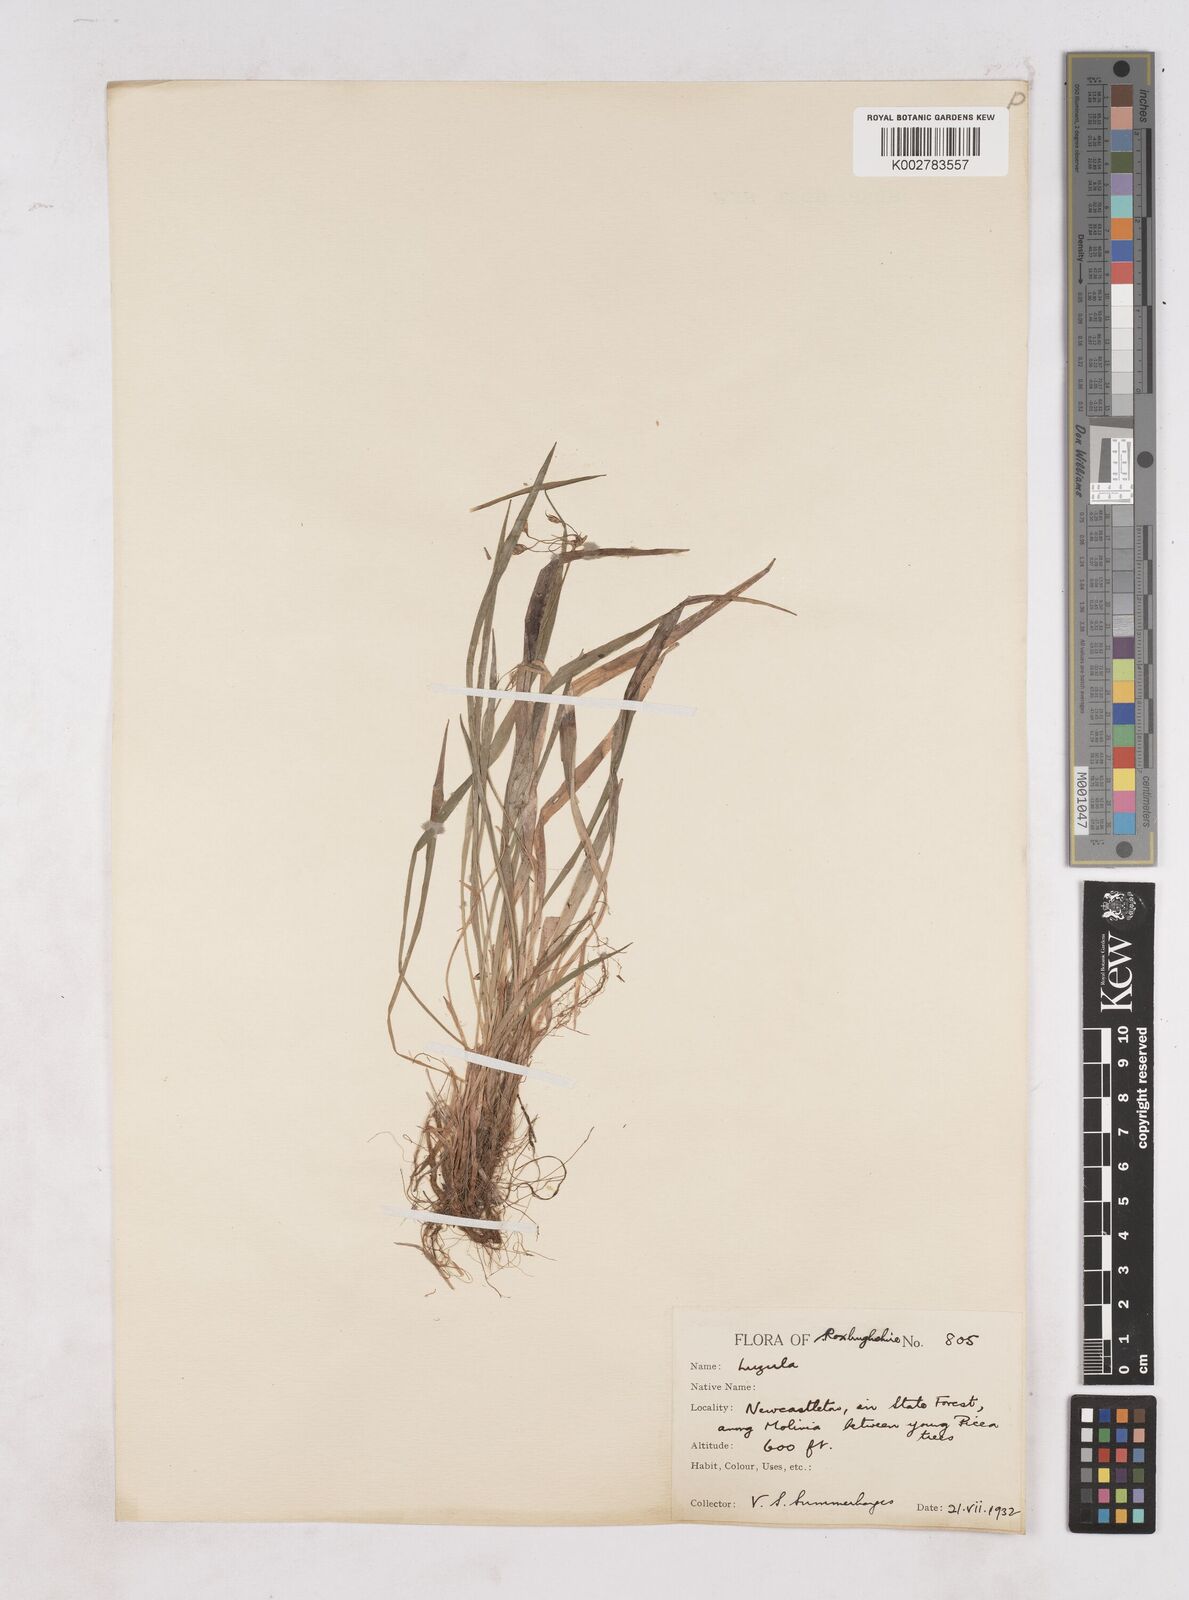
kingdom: Plantae
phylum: Tracheophyta
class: Liliopsida
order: Poales
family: Juncaceae
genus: Luzula
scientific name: Luzula
